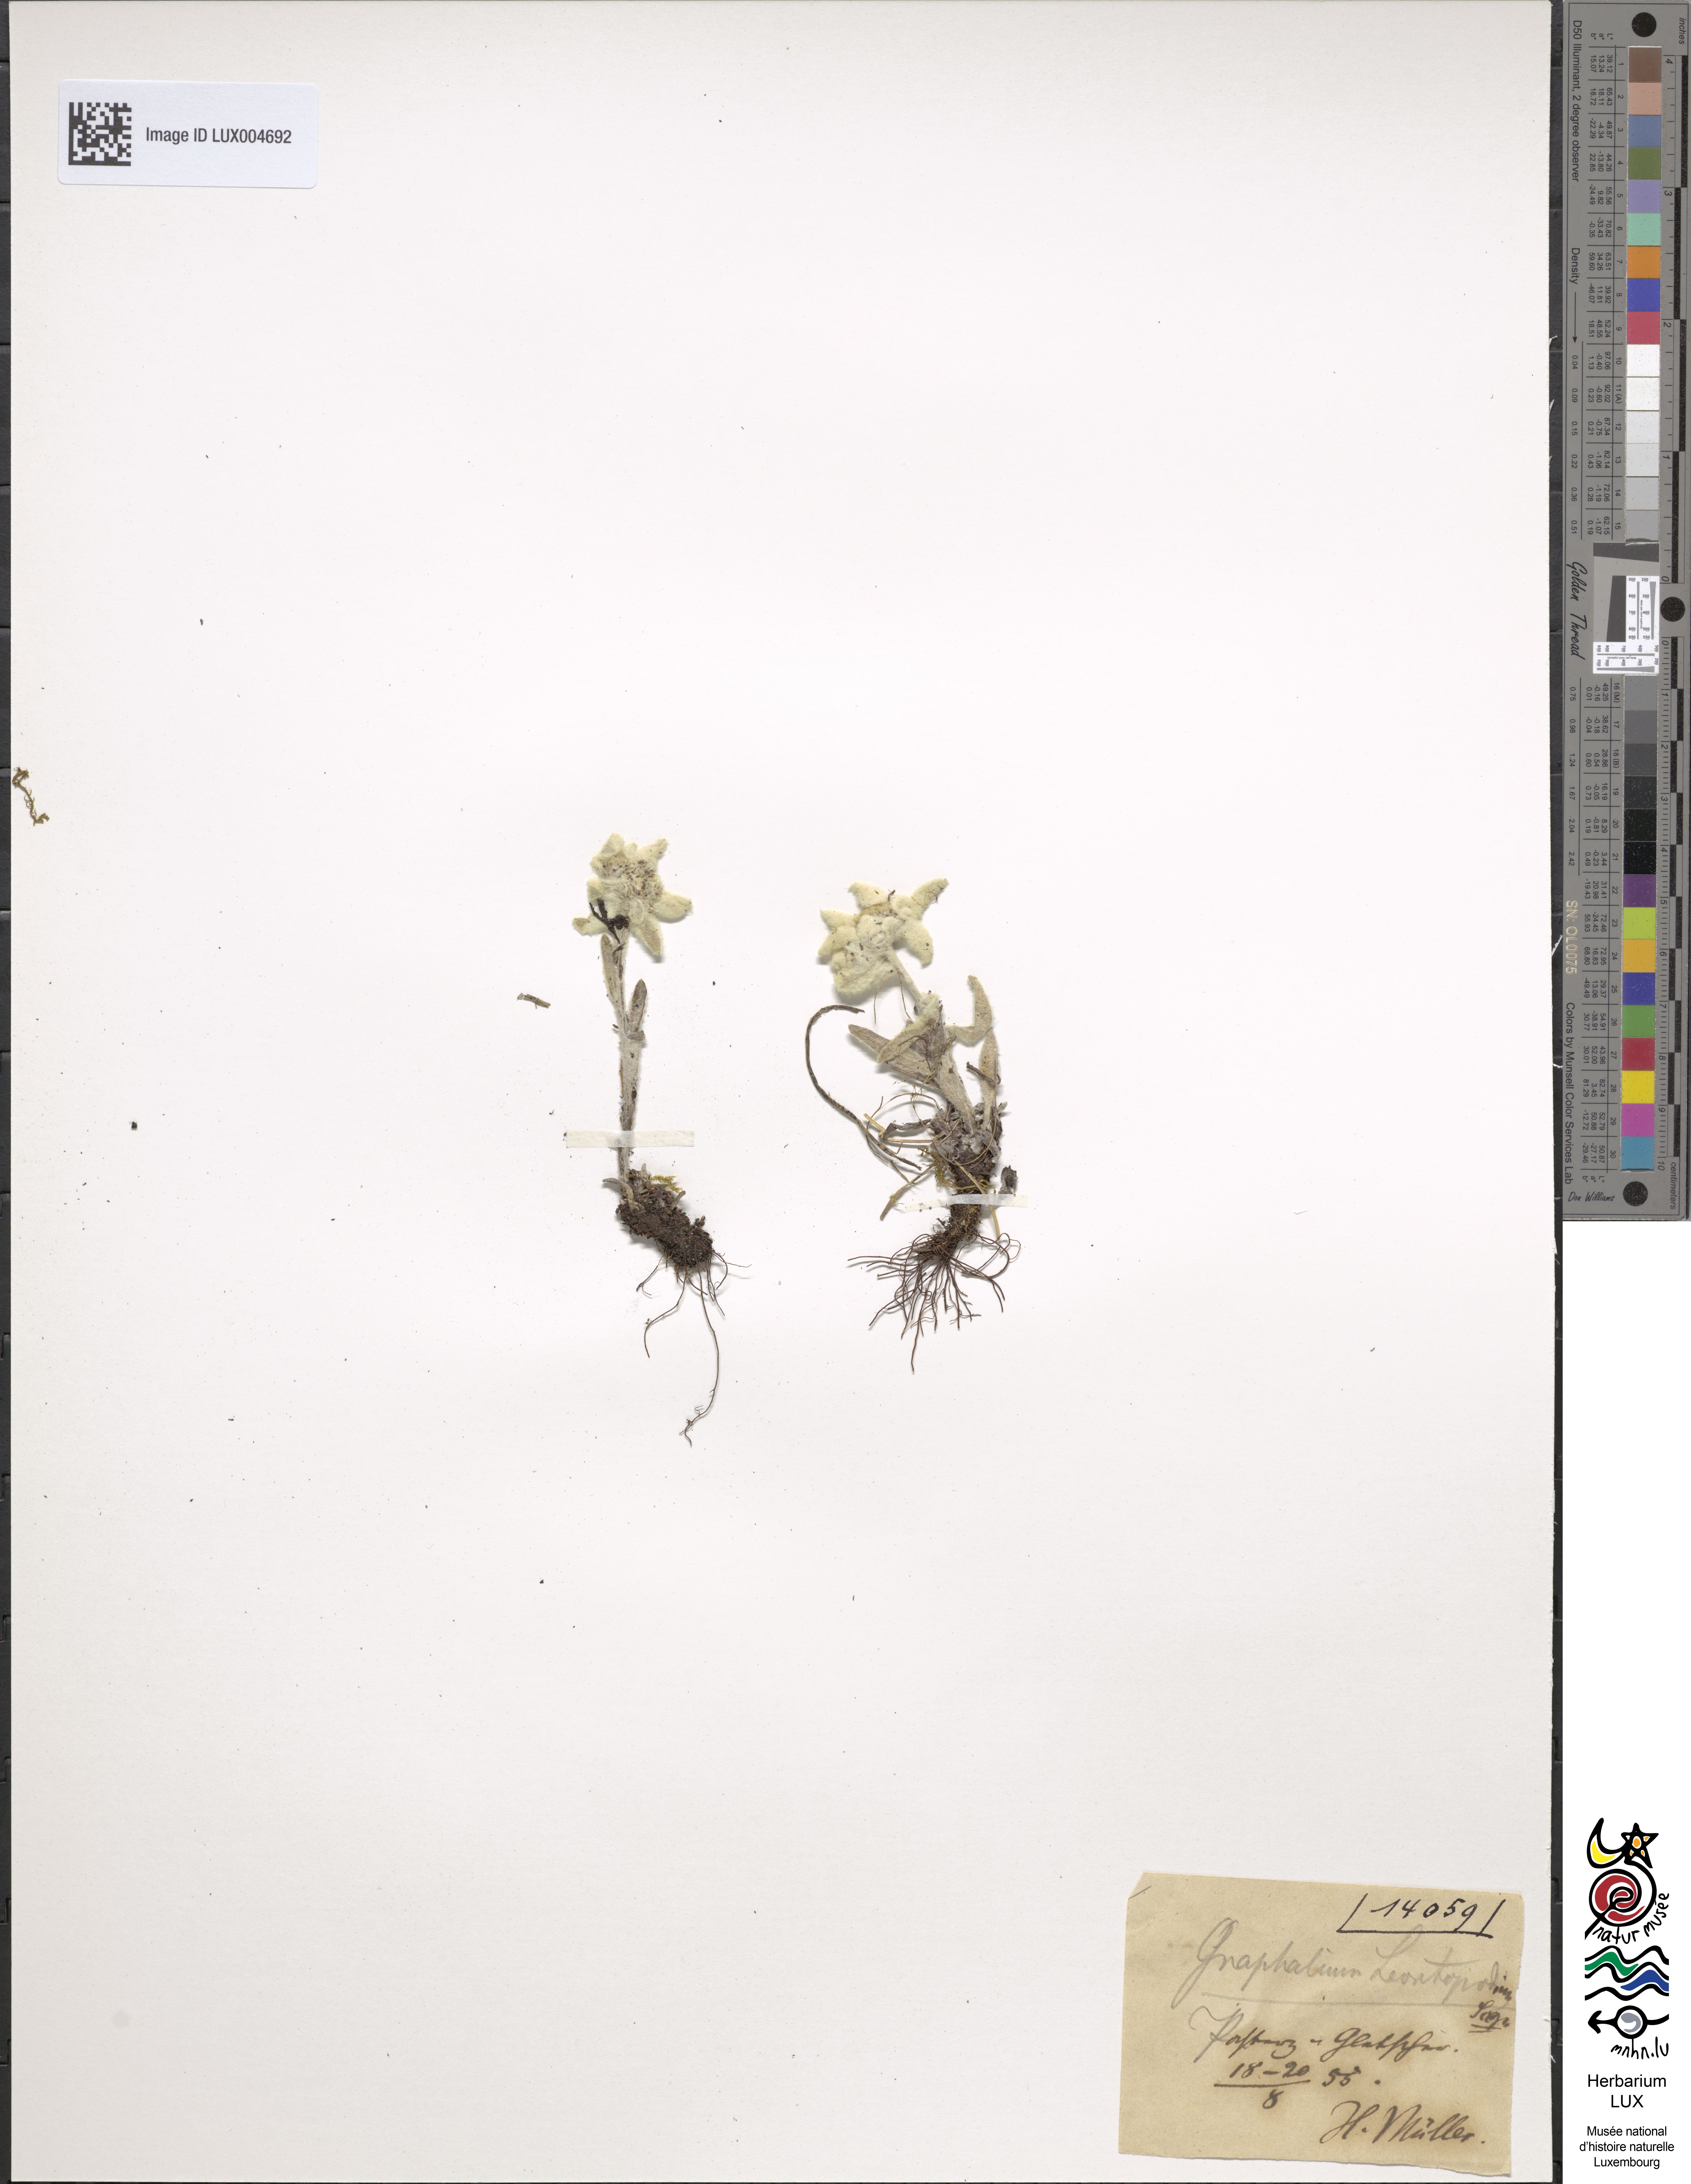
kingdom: Plantae
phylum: Tracheophyta
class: Magnoliopsida
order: Asterales
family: Asteraceae
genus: Leontopodium
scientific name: Leontopodium nivale
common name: Edelweiss
